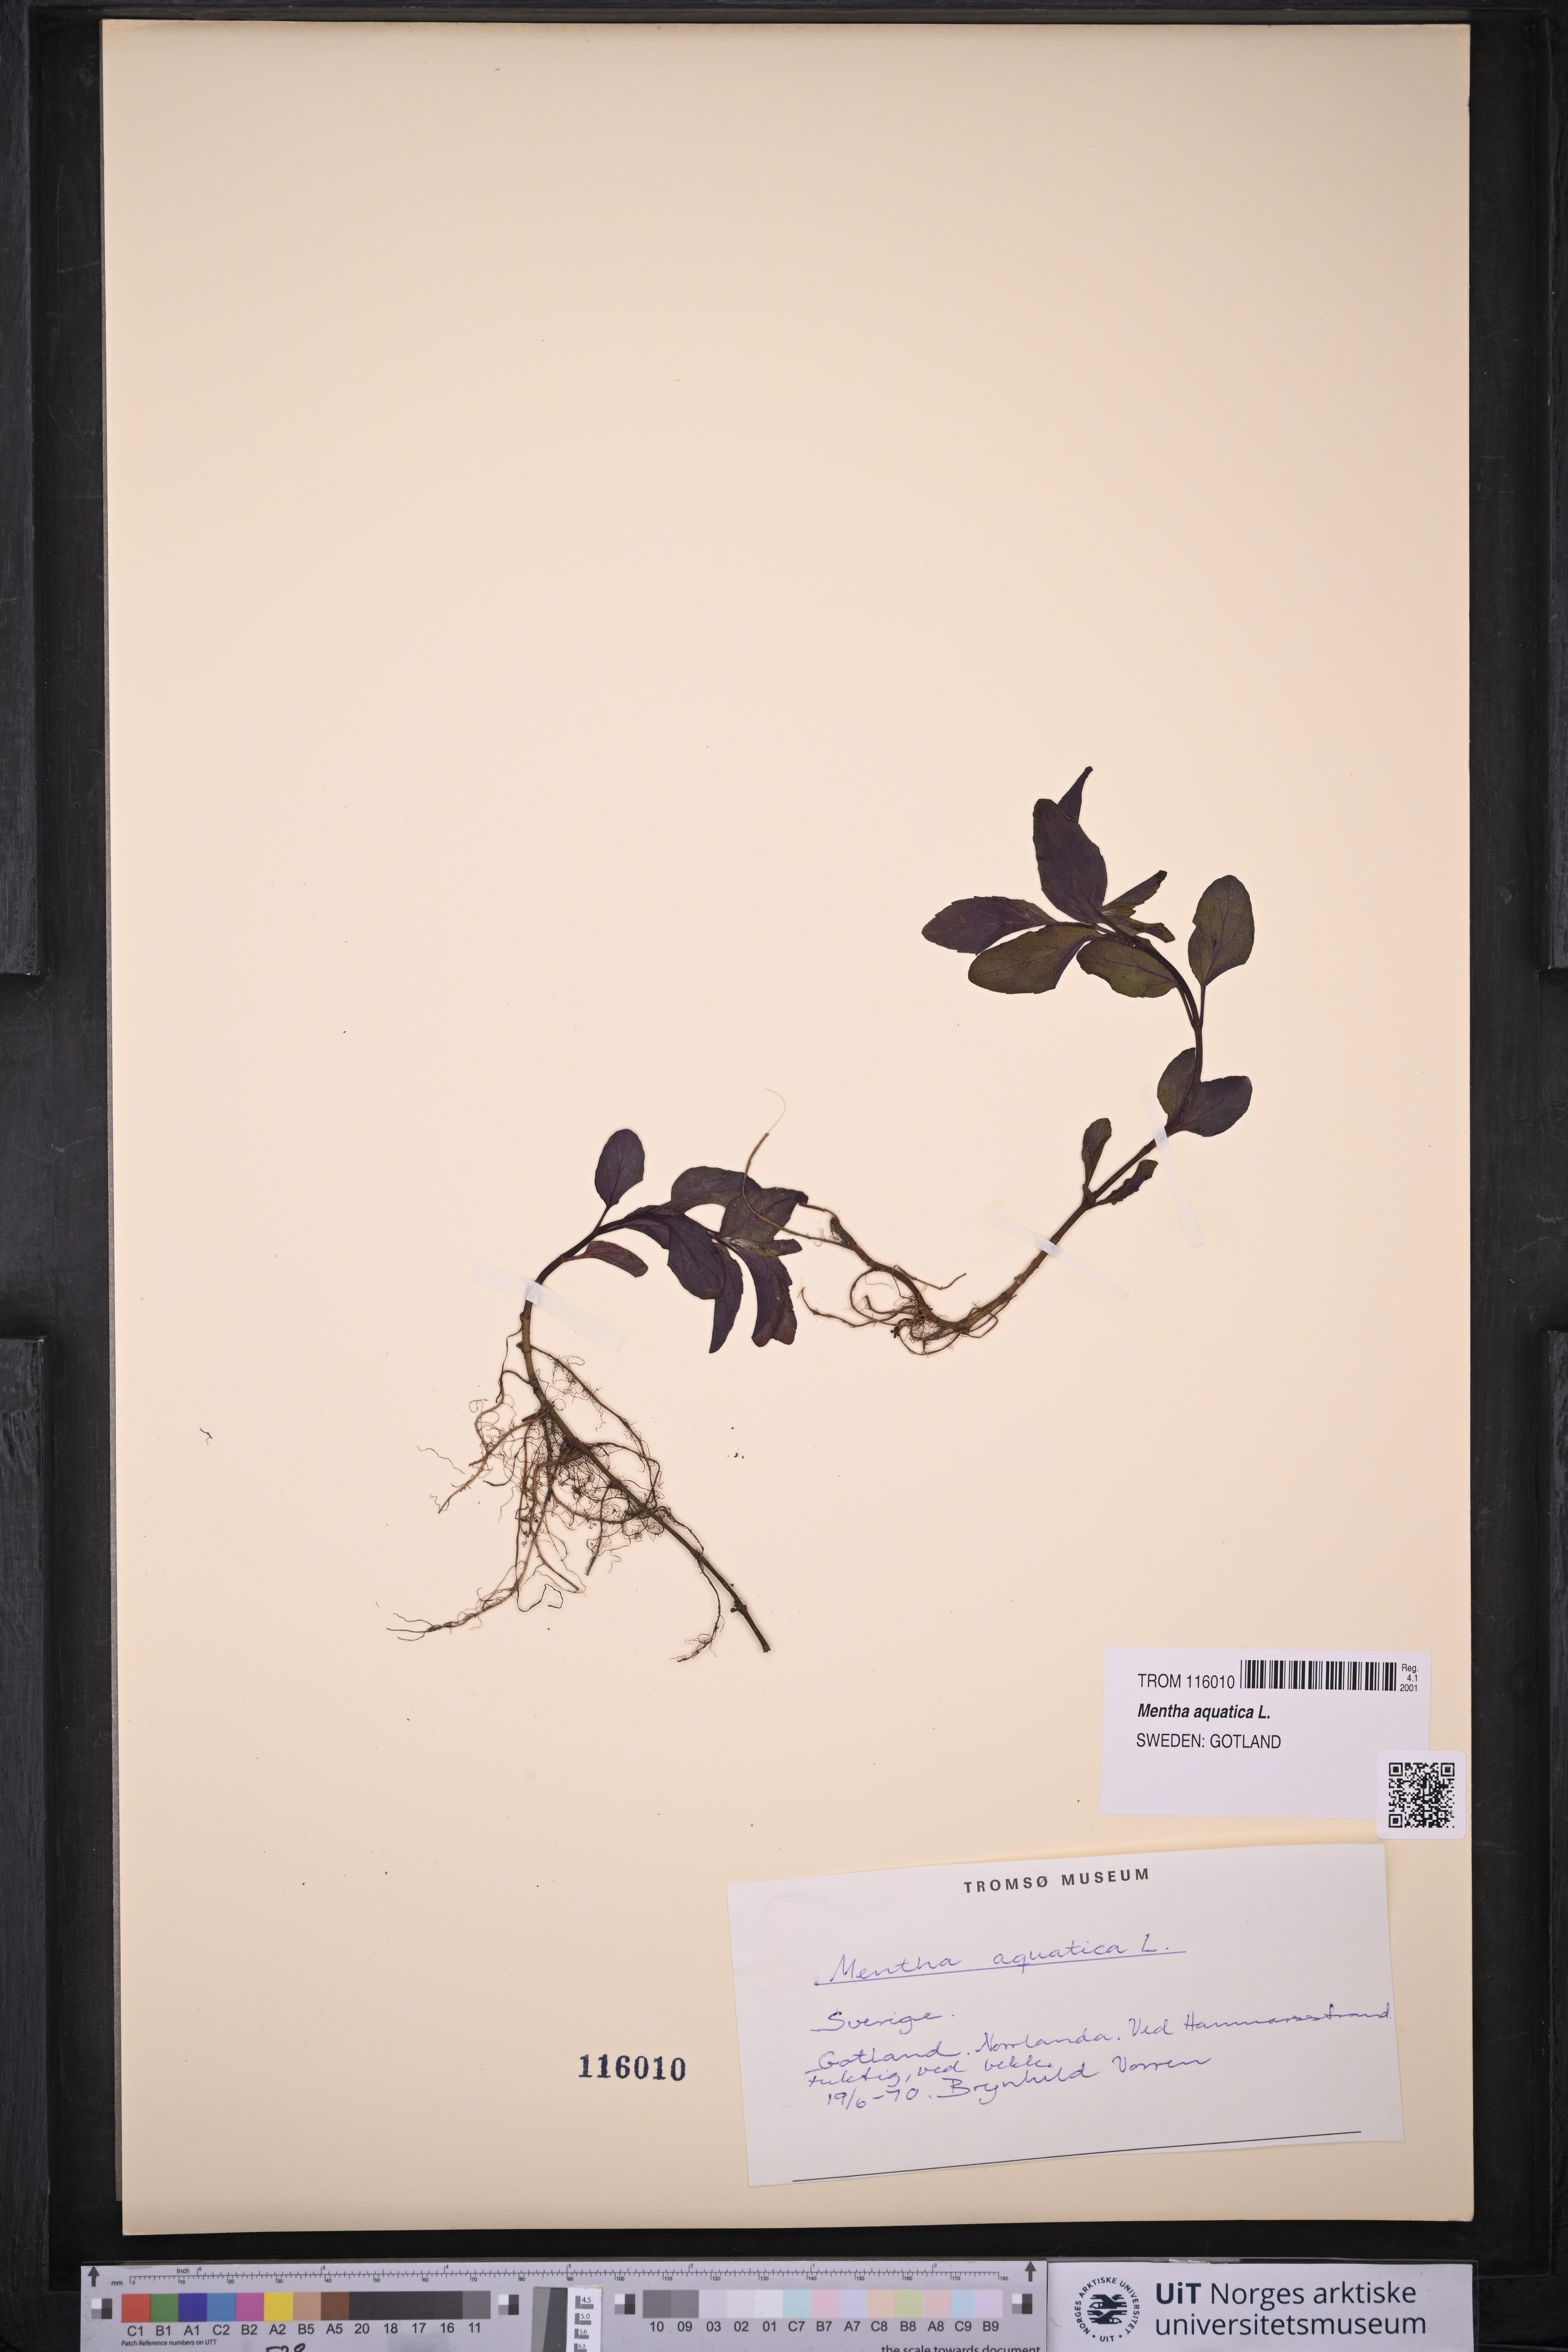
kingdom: Plantae
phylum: Tracheophyta
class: Magnoliopsida
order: Lamiales
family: Lamiaceae
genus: Mentha
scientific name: Mentha aquatica
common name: Water mint
